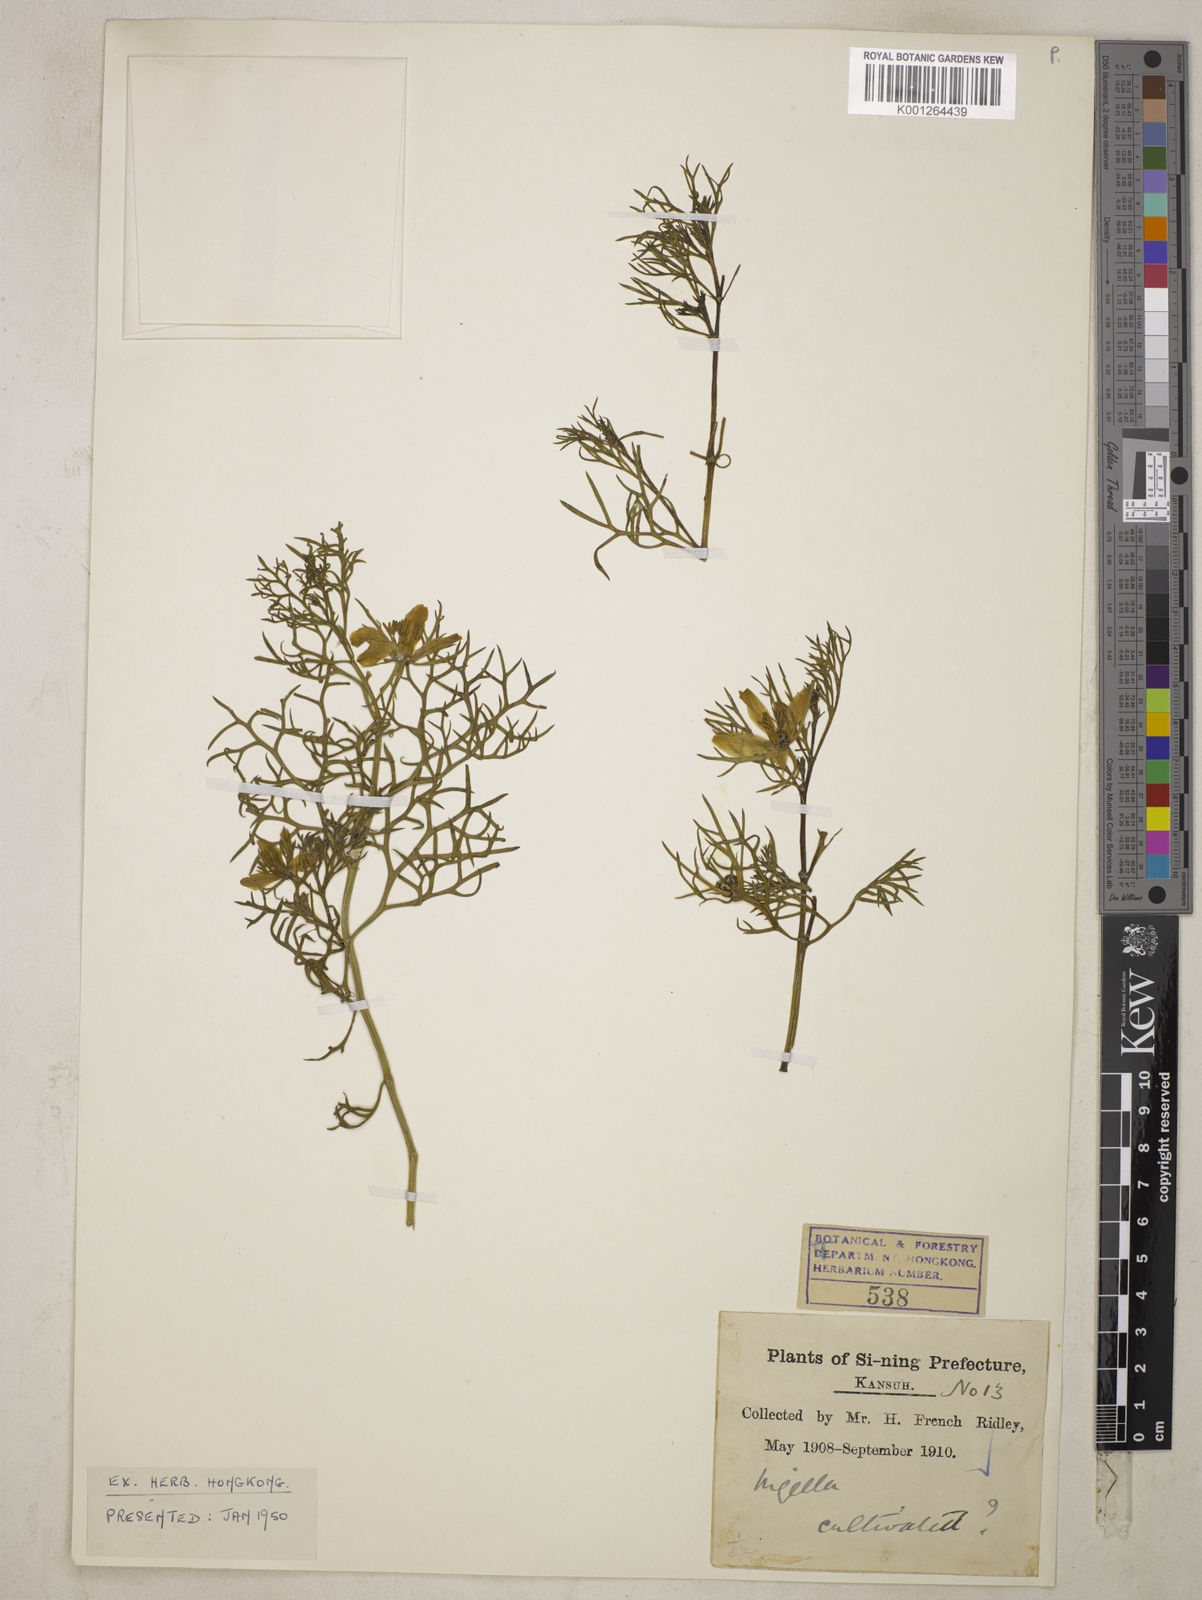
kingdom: Plantae
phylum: Tracheophyta
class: Magnoliopsida
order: Ranunculales
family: Ranunculaceae
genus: Nigella
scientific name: Nigella
